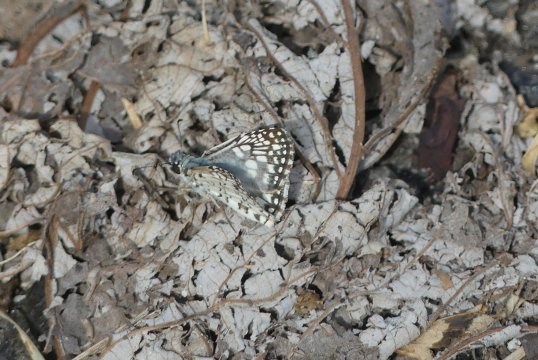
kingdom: Animalia
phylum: Arthropoda
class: Insecta
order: Lepidoptera
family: Hesperiidae
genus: Pyrgus
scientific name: Pyrgus oileus
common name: Tropical Checkered-Skipper
